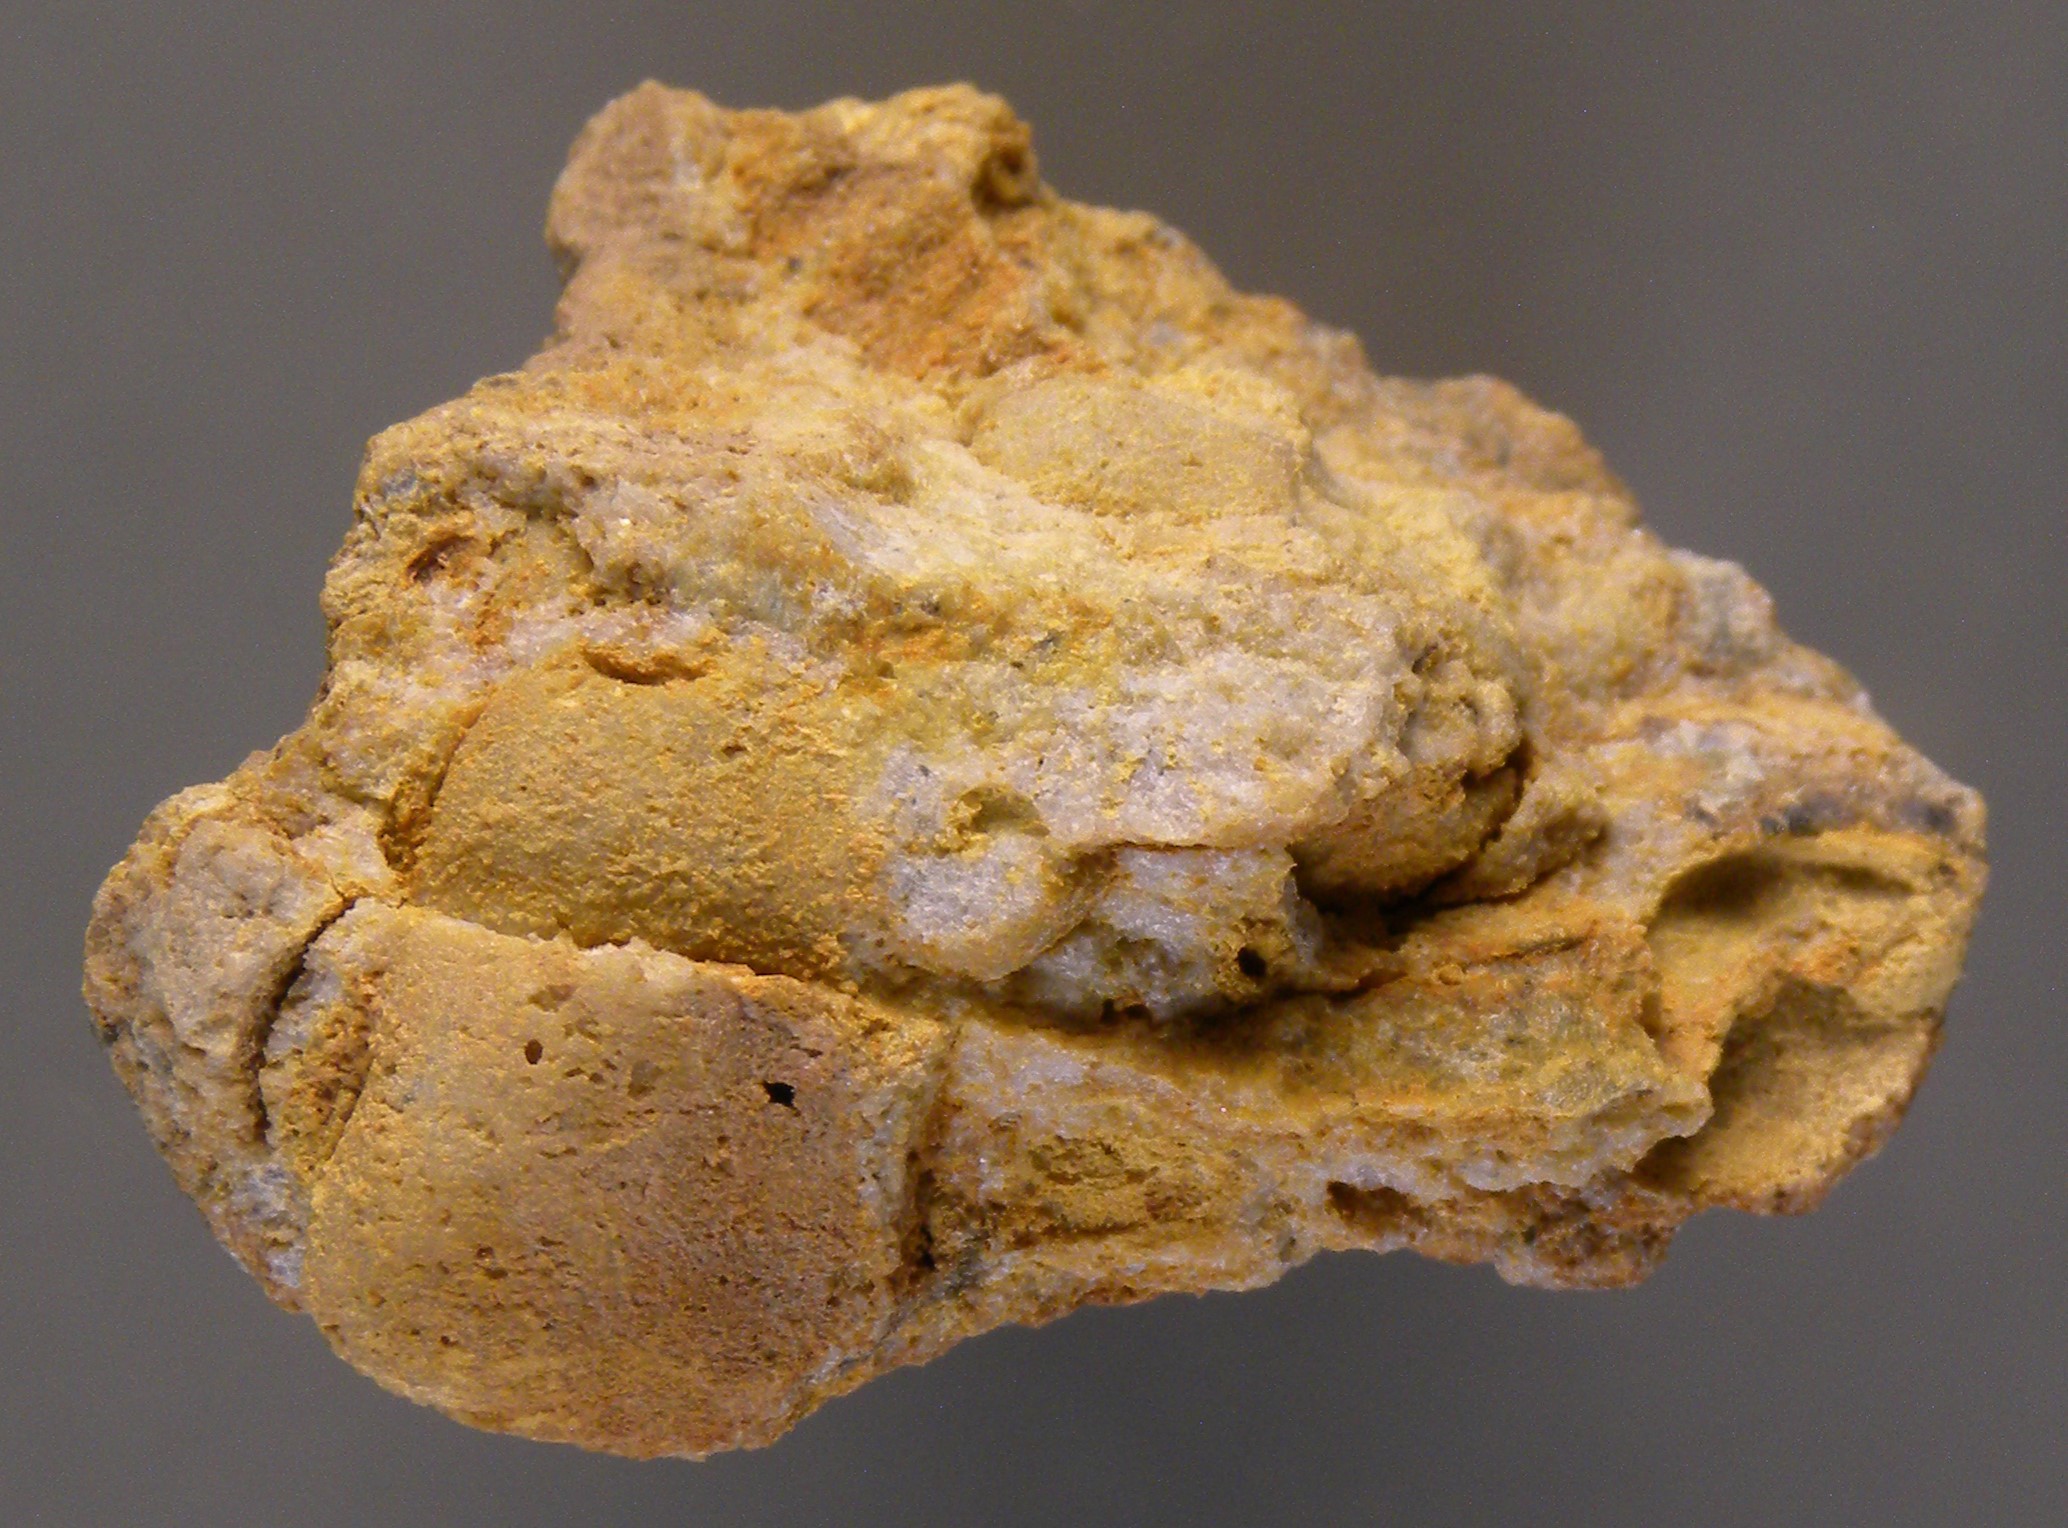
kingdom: Animalia
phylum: Mollusca
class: Bivalvia
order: Nuculida
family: Nuculidae
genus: Nuculoidea
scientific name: Nuculoidea
